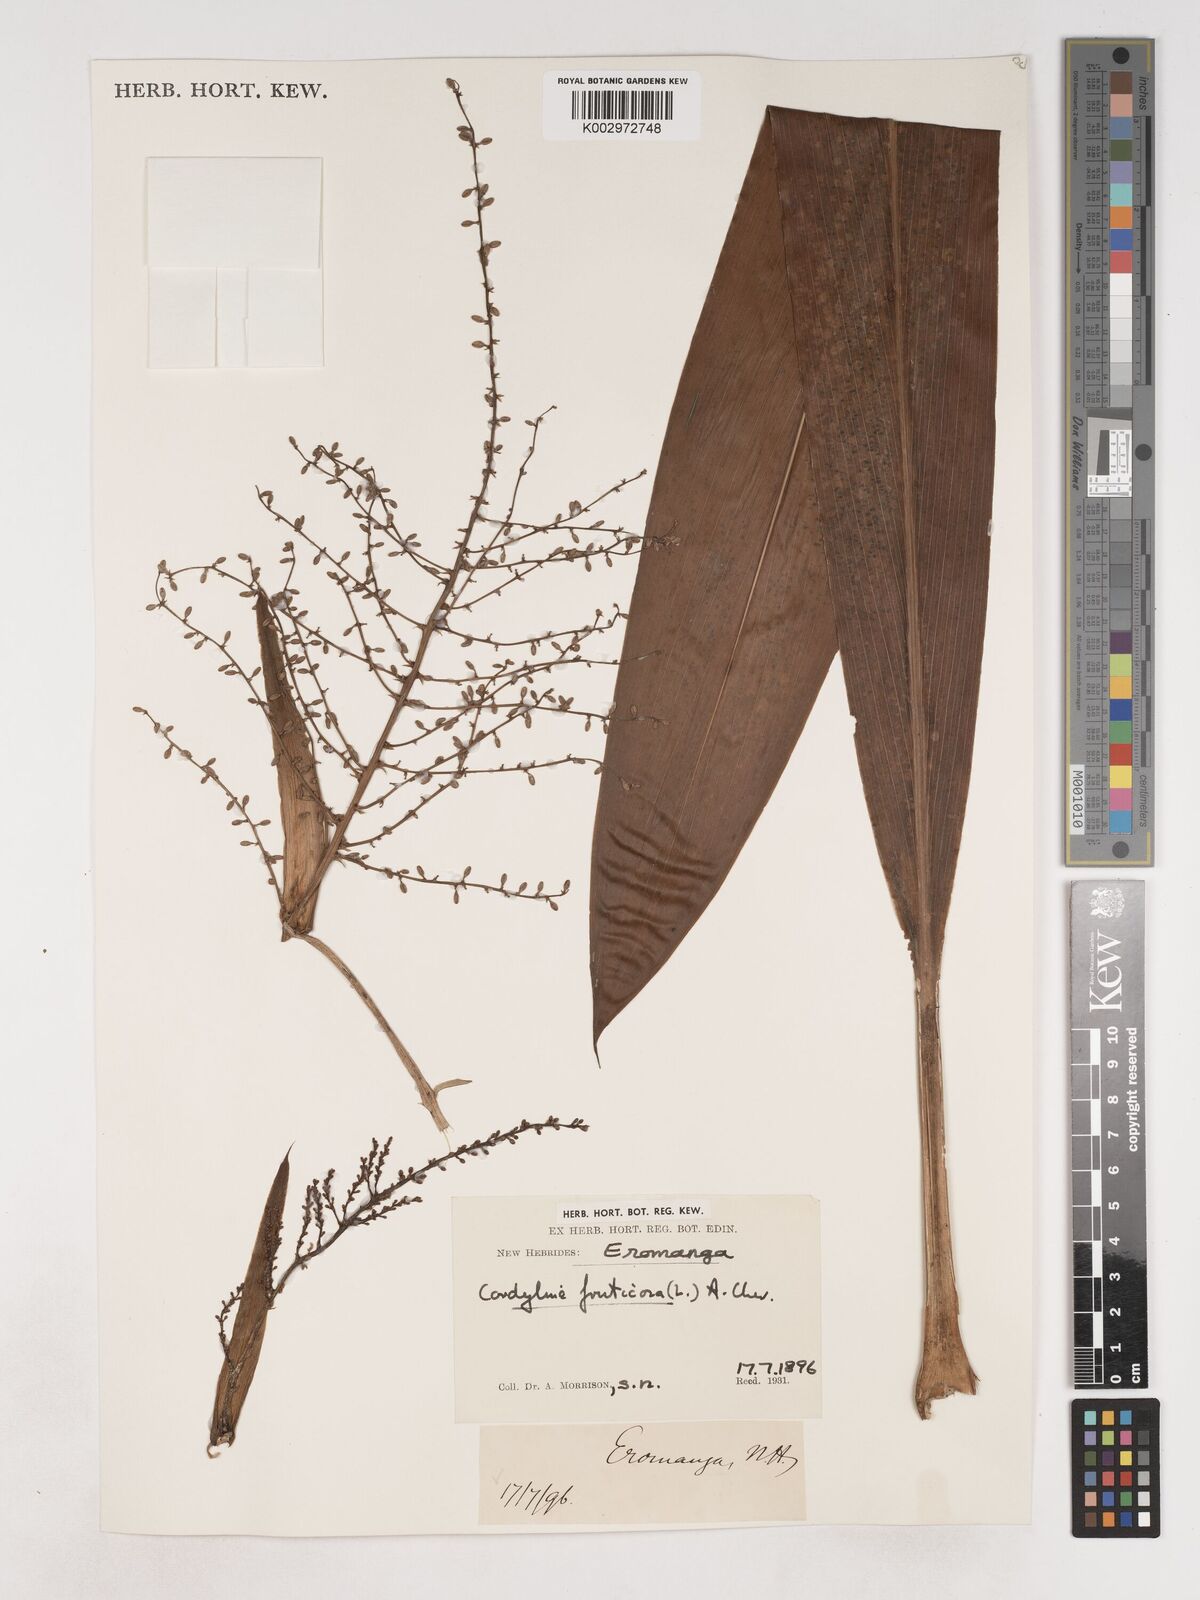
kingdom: Plantae
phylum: Tracheophyta
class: Liliopsida
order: Asparagales
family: Asparagaceae
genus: Cordyline
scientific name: Cordyline fruticosa
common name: Good-luck-plant
